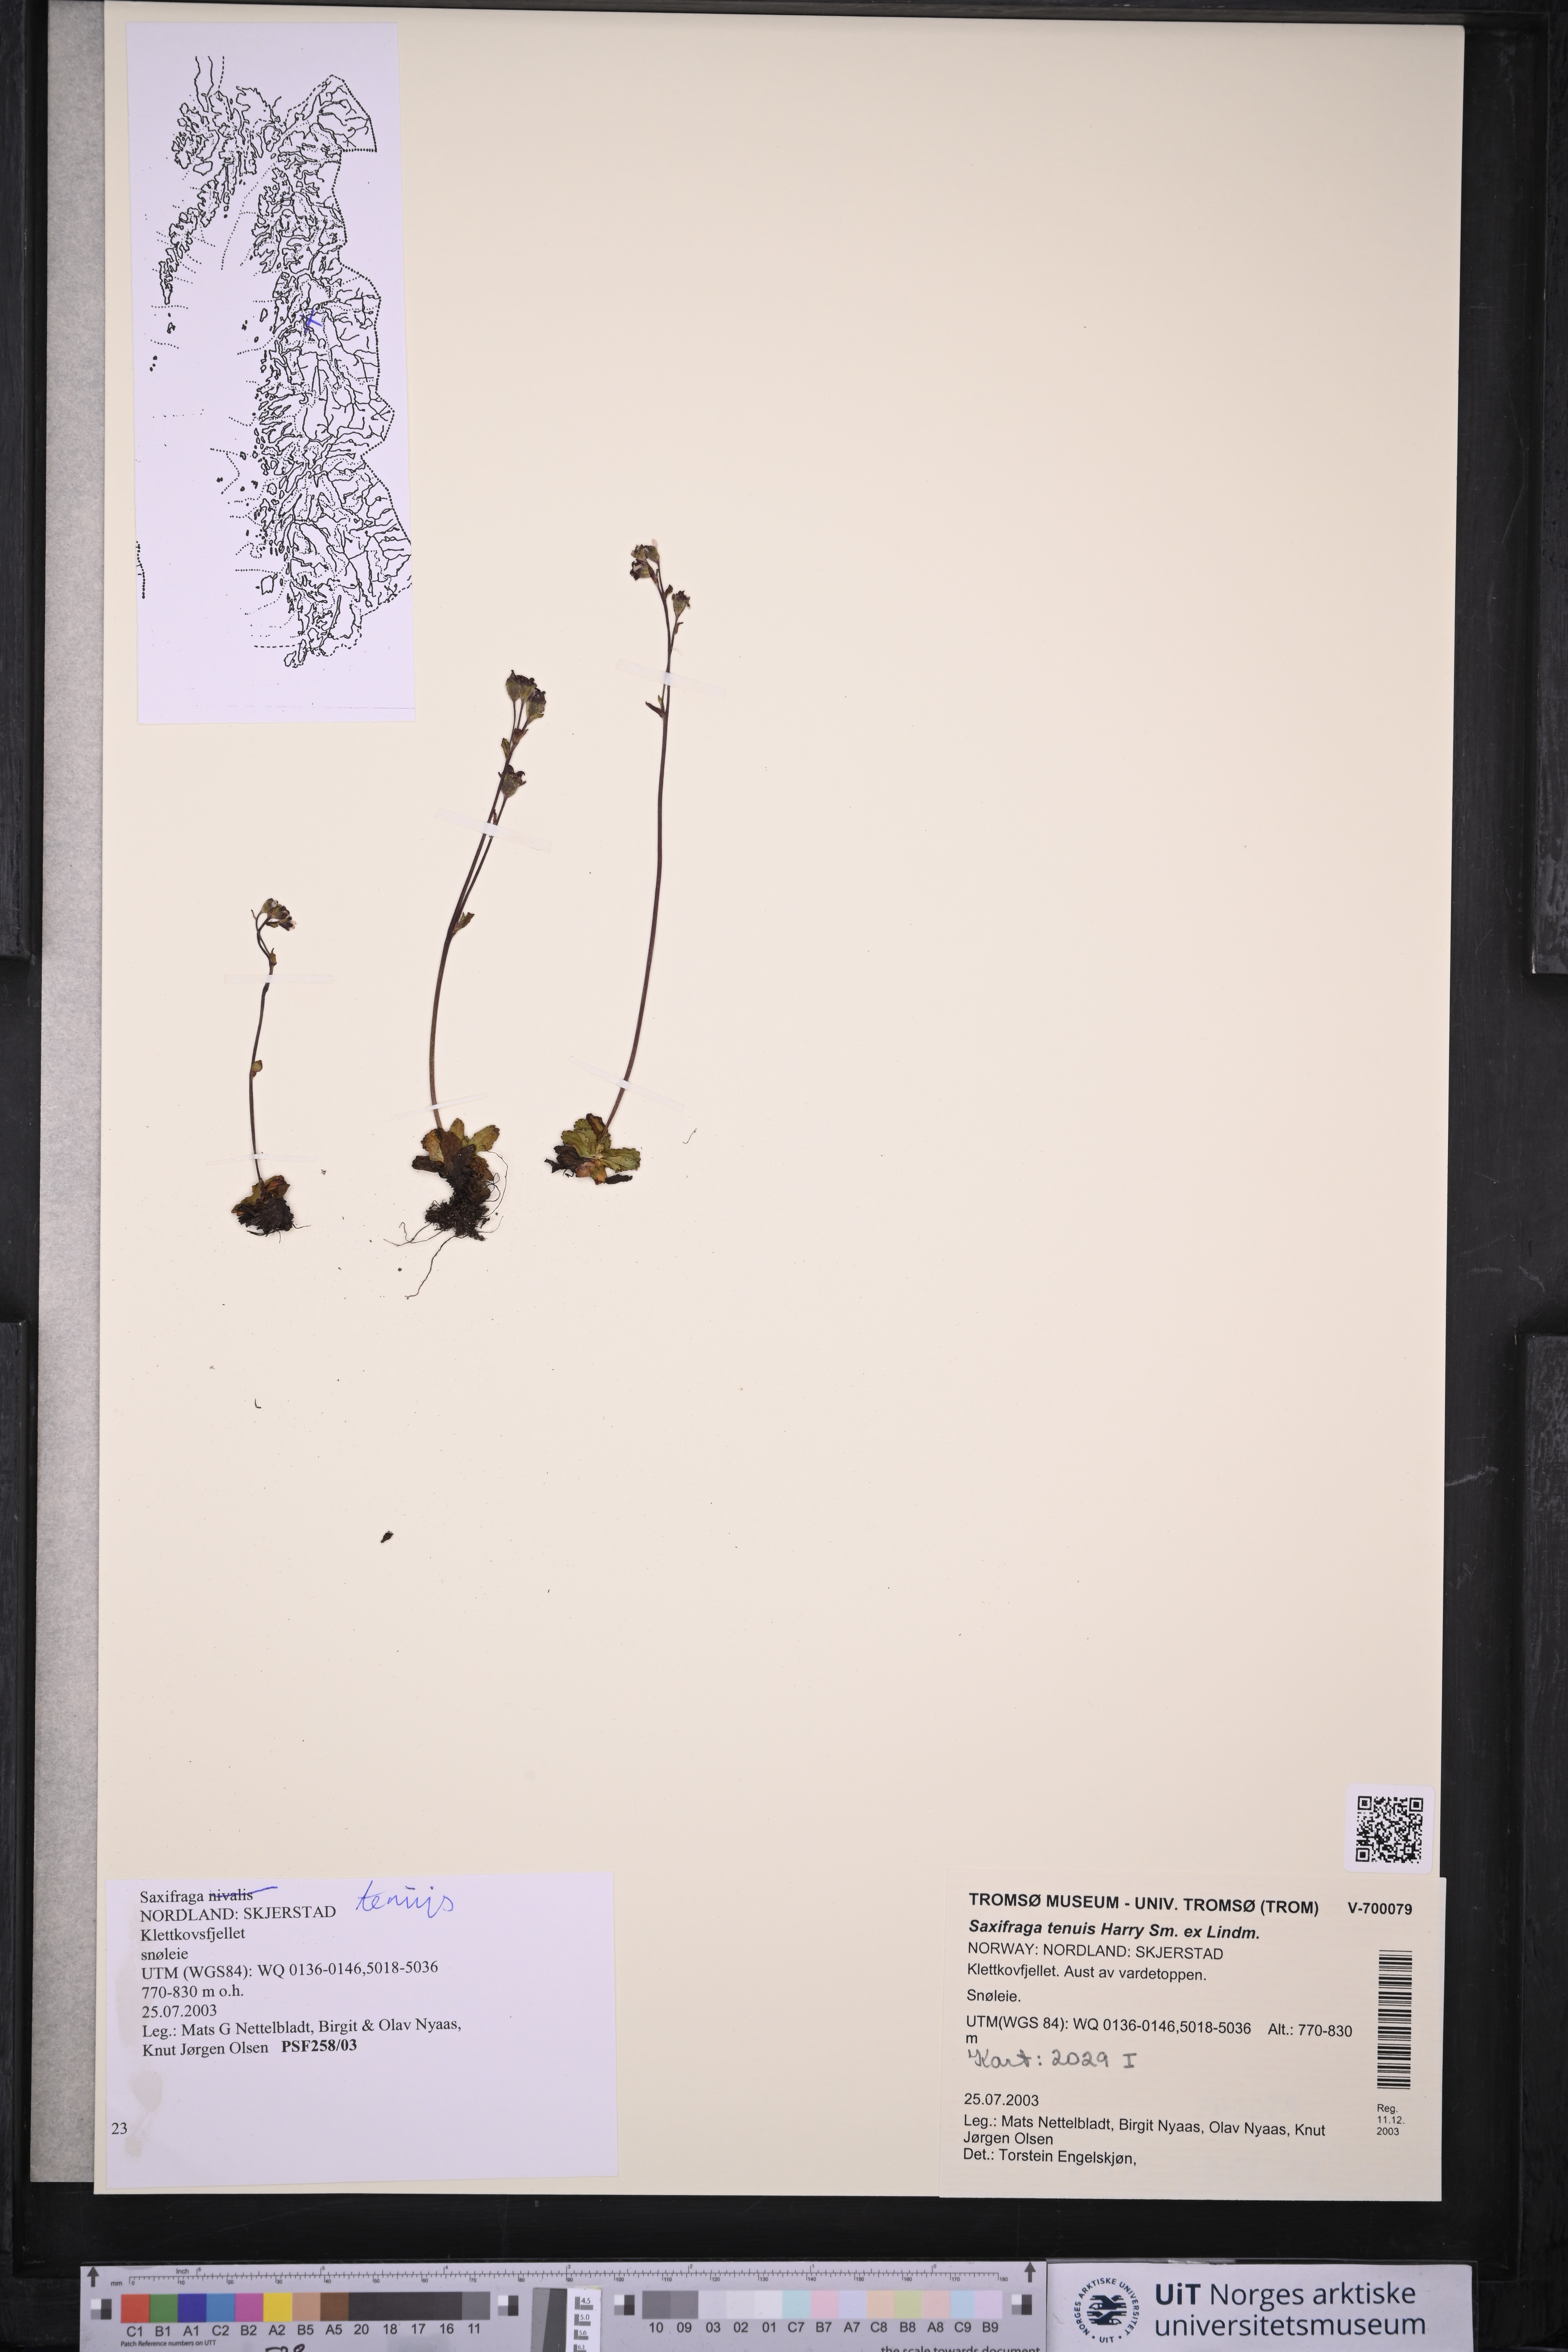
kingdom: Plantae
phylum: Tracheophyta
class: Magnoliopsida
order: Saxifragales
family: Saxifragaceae
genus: Micranthes
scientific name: Micranthes tenuis
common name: Ottertail pass saxifrage
